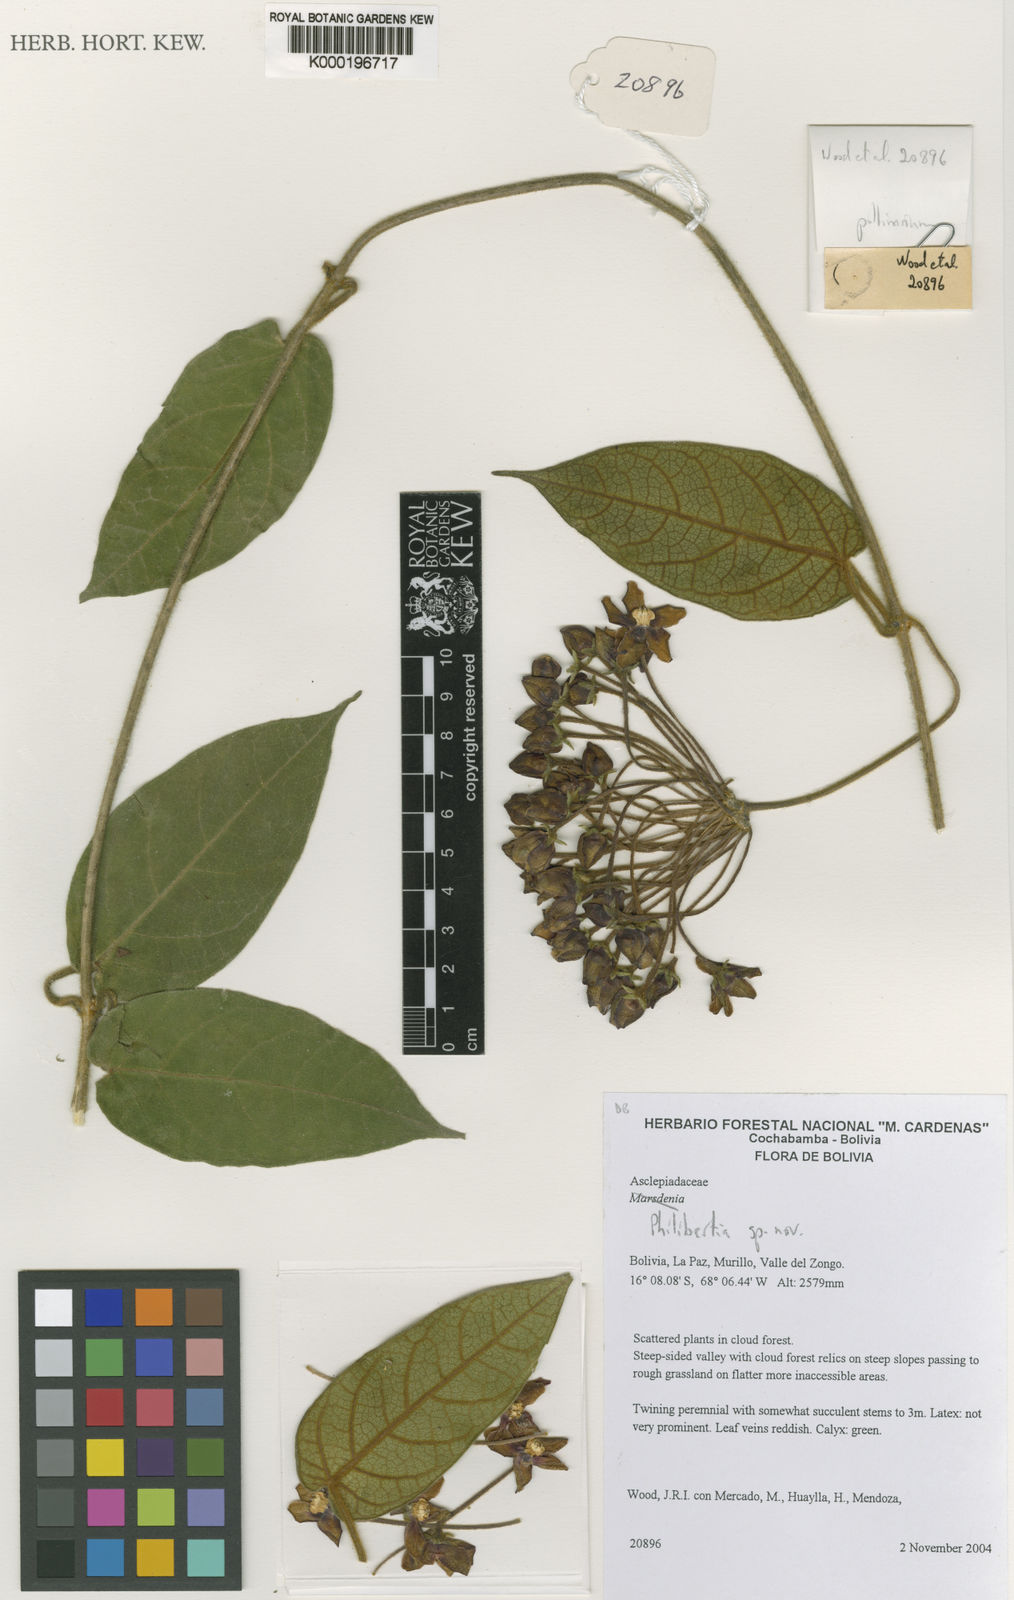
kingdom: Plantae
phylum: Tracheophyta
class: Magnoliopsida
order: Gentianales
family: Apocynaceae
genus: Philibertia
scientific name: Philibertia zongoensis
